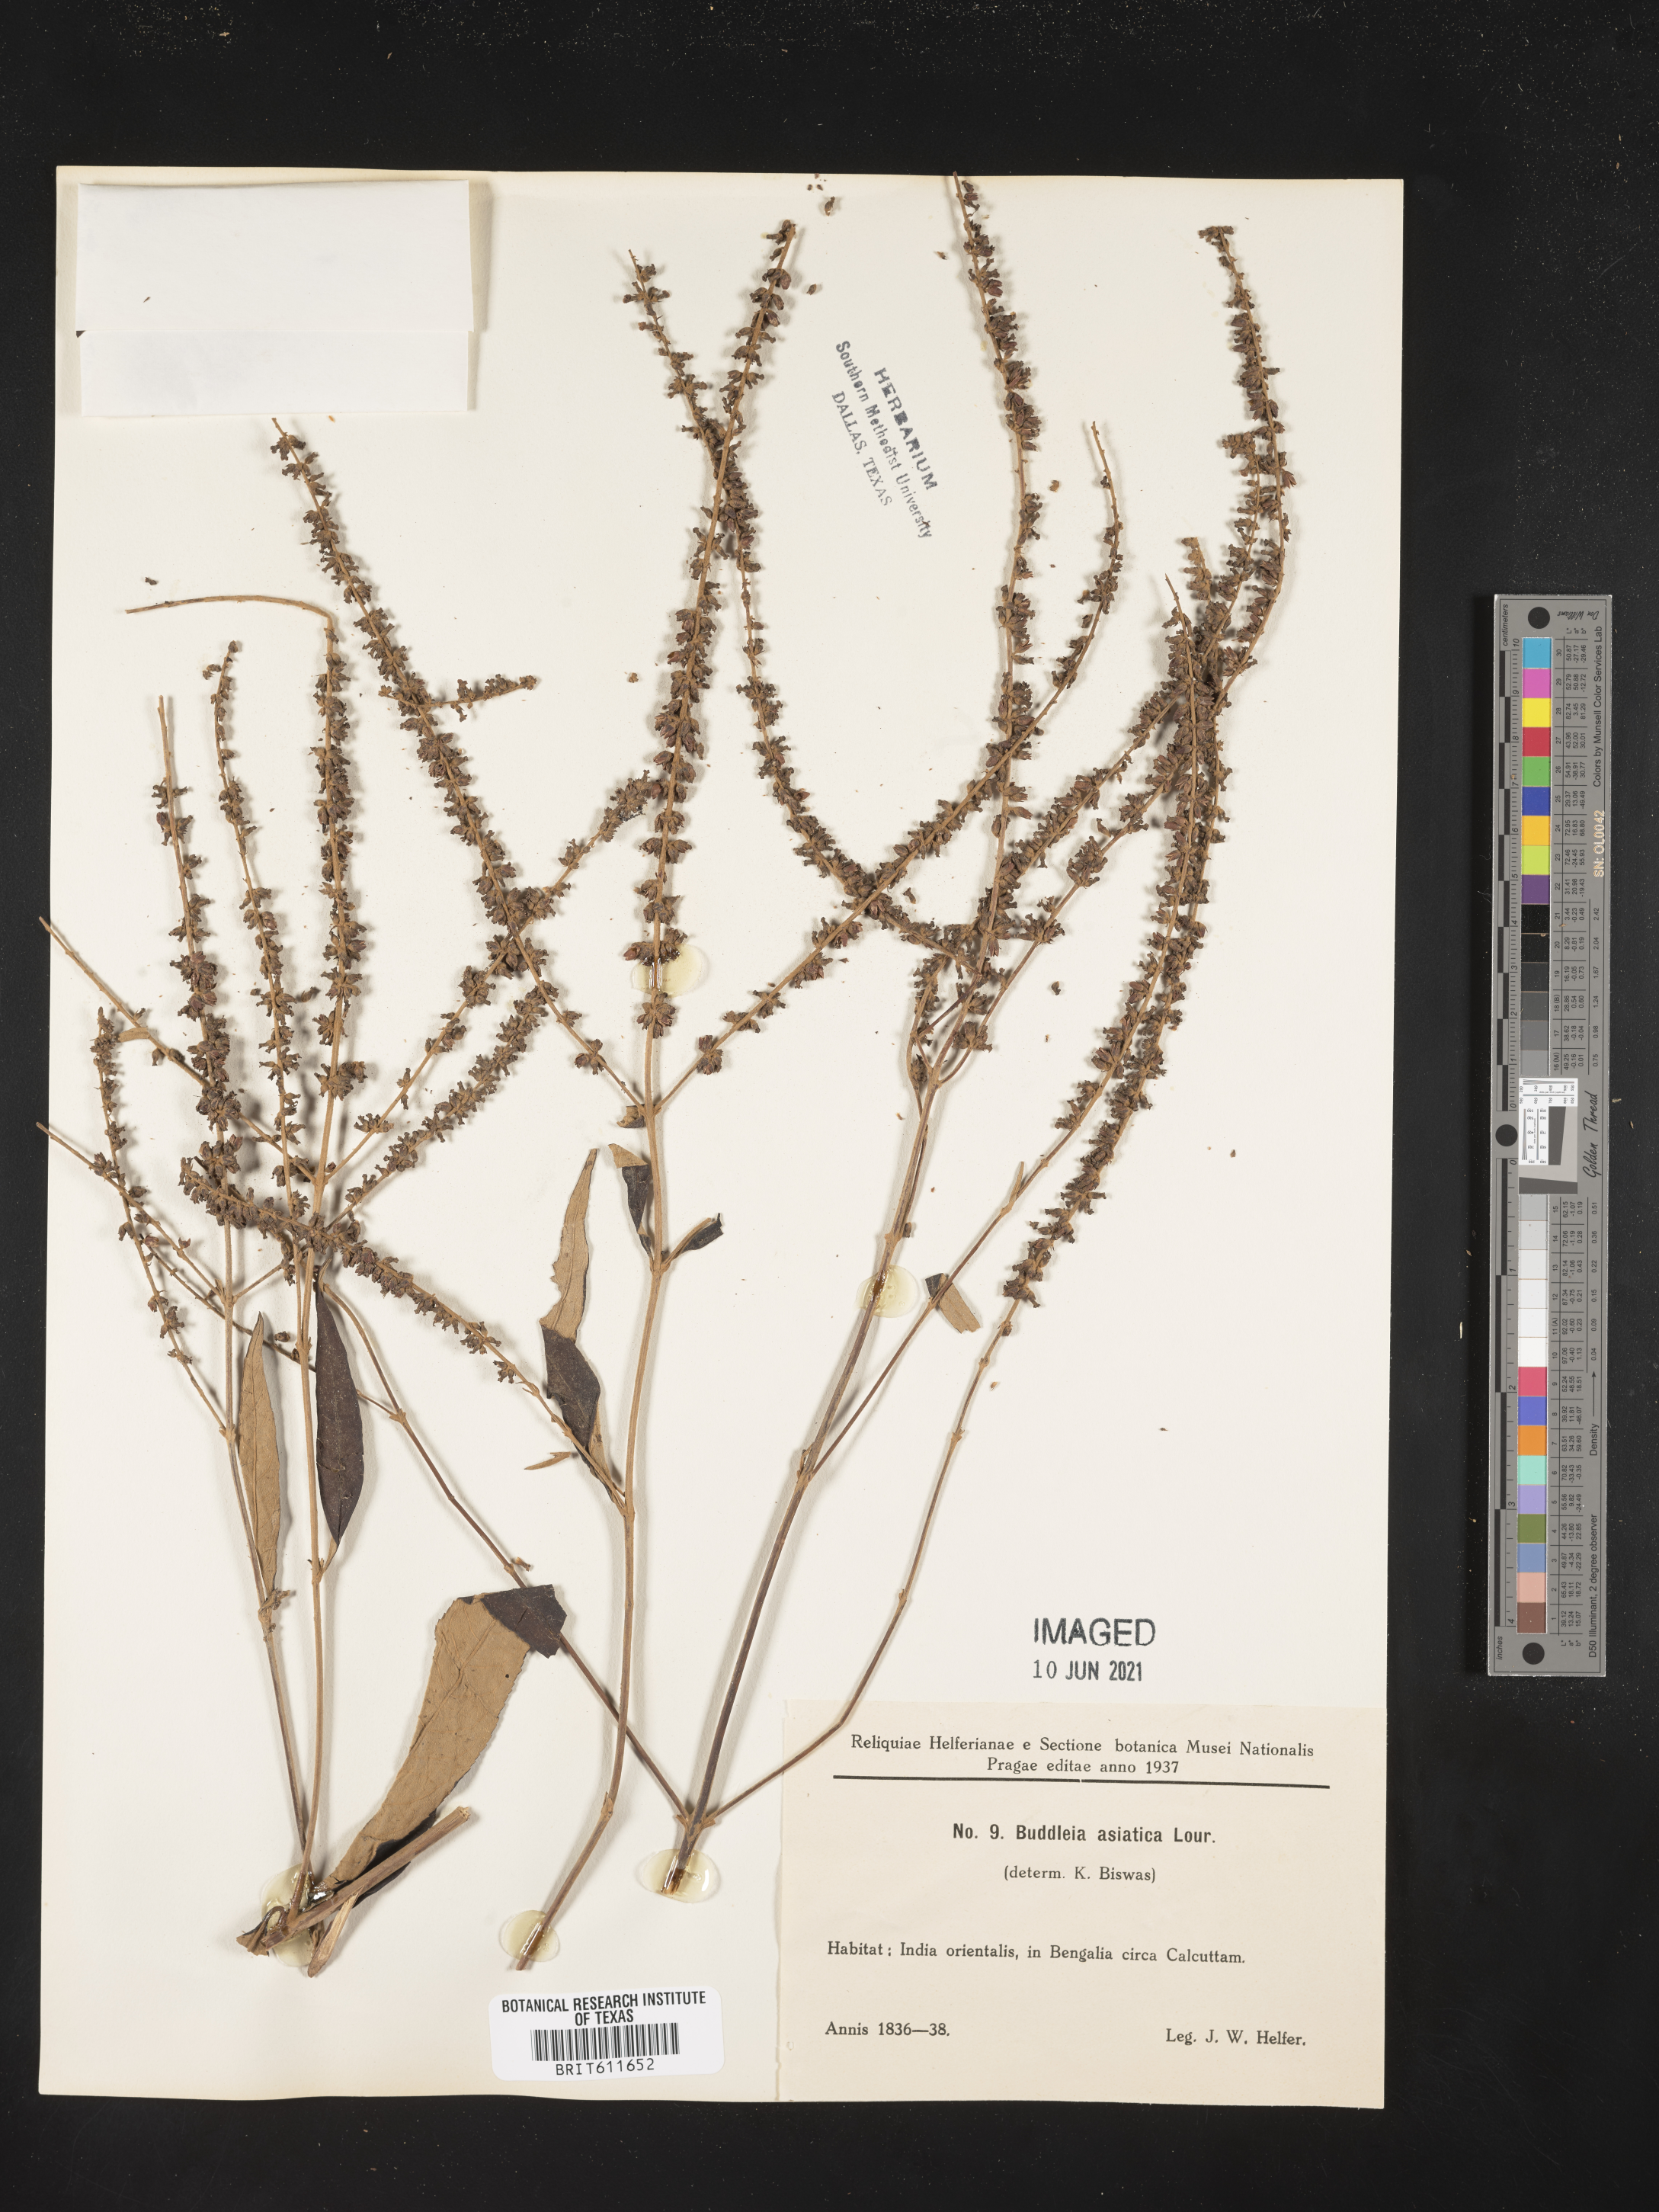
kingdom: Plantae
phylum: Tracheophyta
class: Magnoliopsida
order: Lamiales
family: Scrophulariaceae
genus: Buddleja
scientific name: Buddleja
